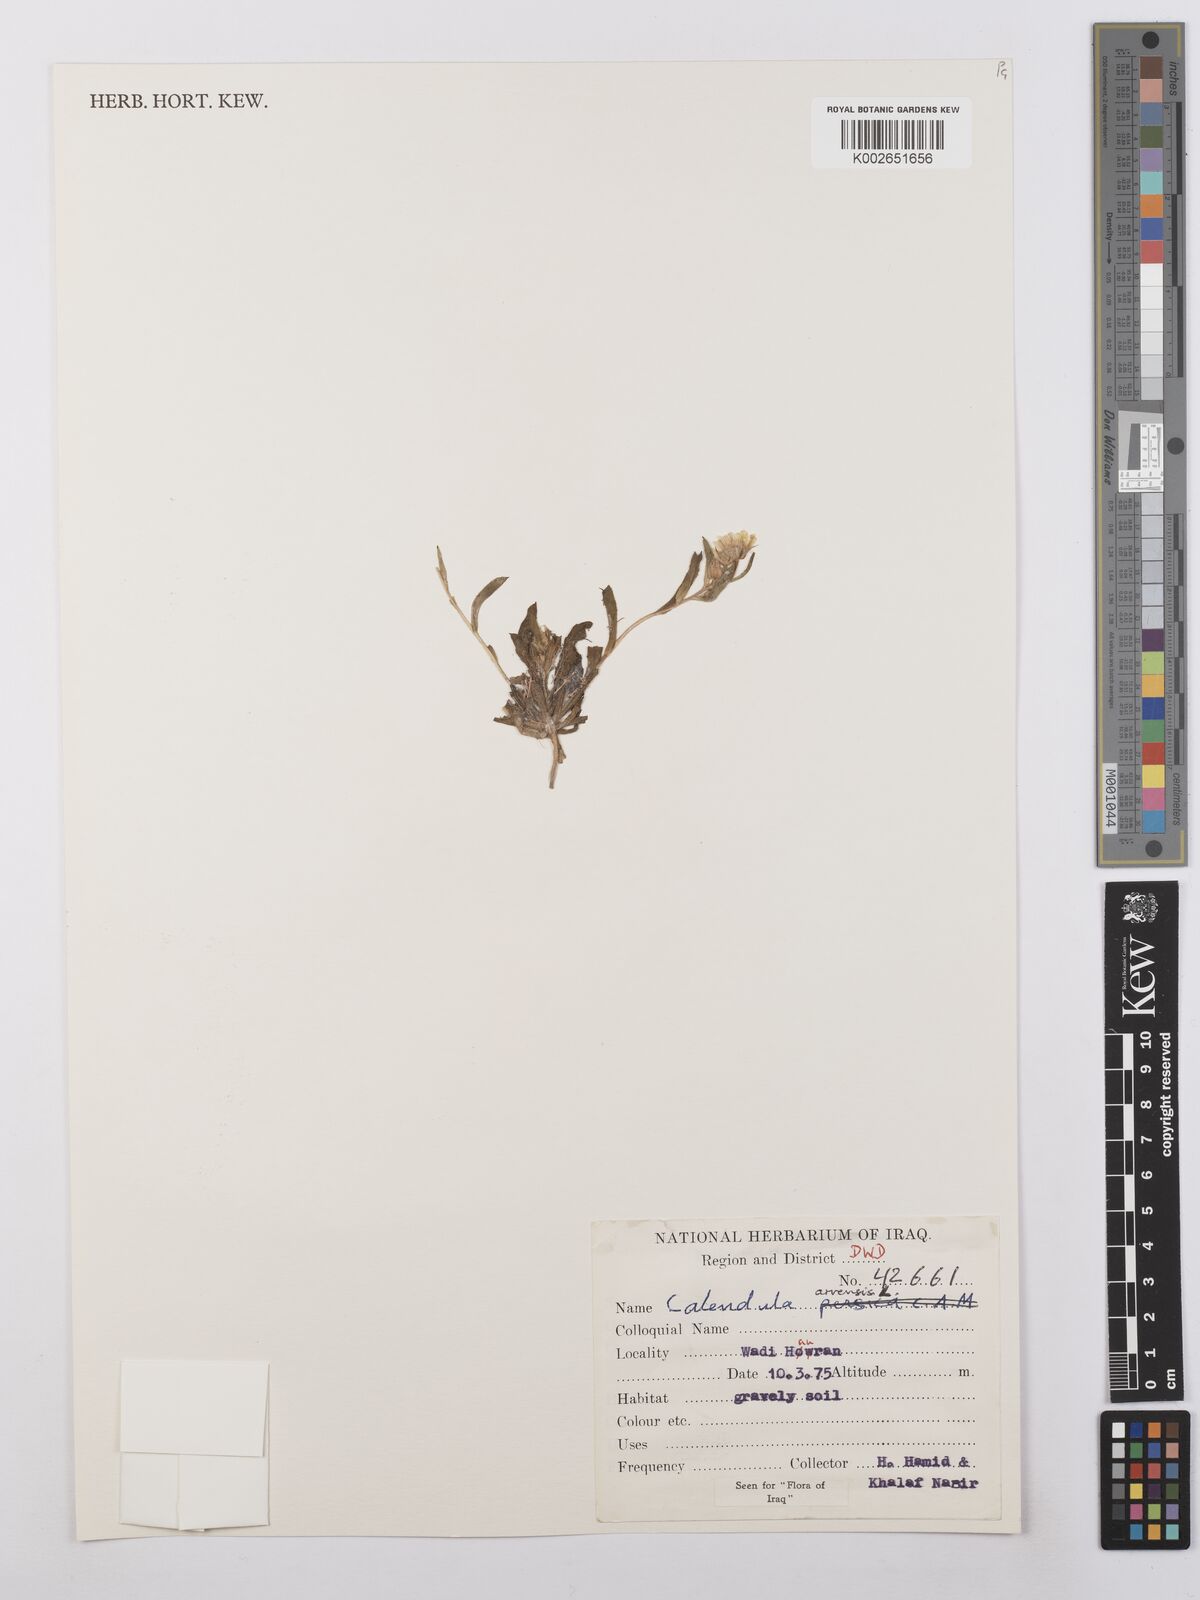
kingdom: Plantae
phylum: Tracheophyta
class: Magnoliopsida
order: Asterales
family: Asteraceae
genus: Calendula
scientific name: Calendula arvensis
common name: Field marigold
